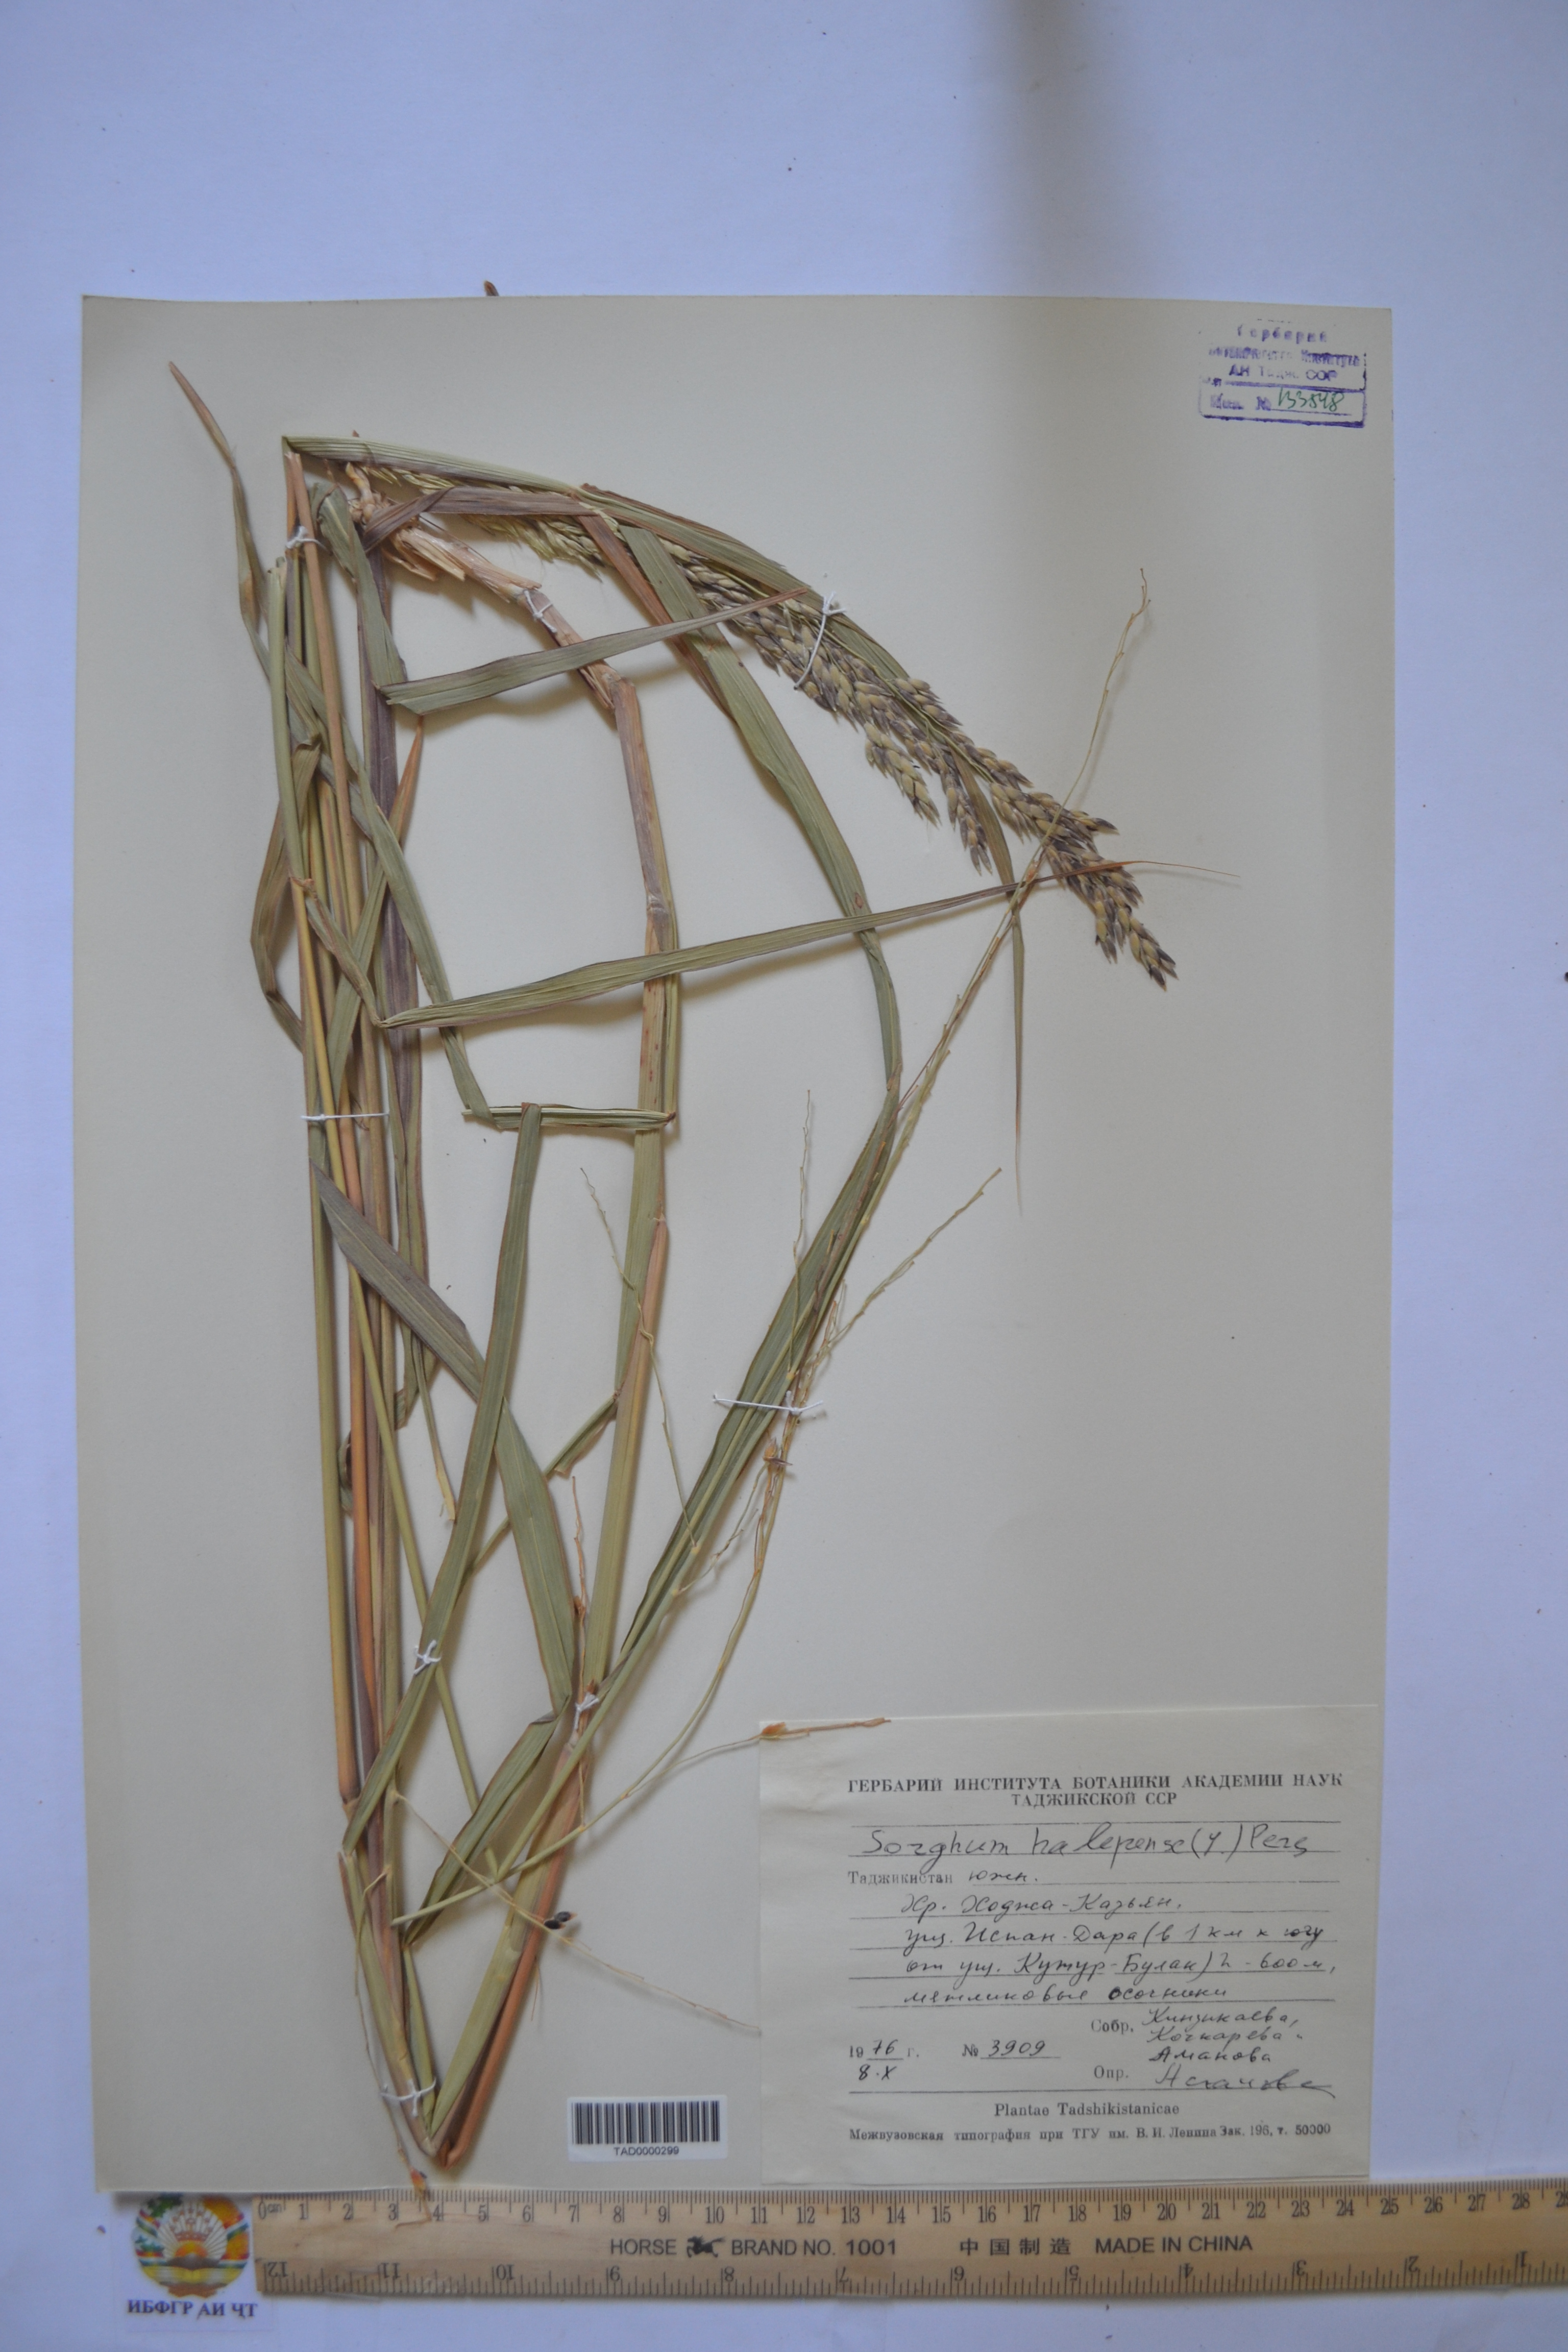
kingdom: Plantae
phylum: Tracheophyta
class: Liliopsida
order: Poales
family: Poaceae
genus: Sorghum
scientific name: Sorghum halepense
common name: Johnson-grass
